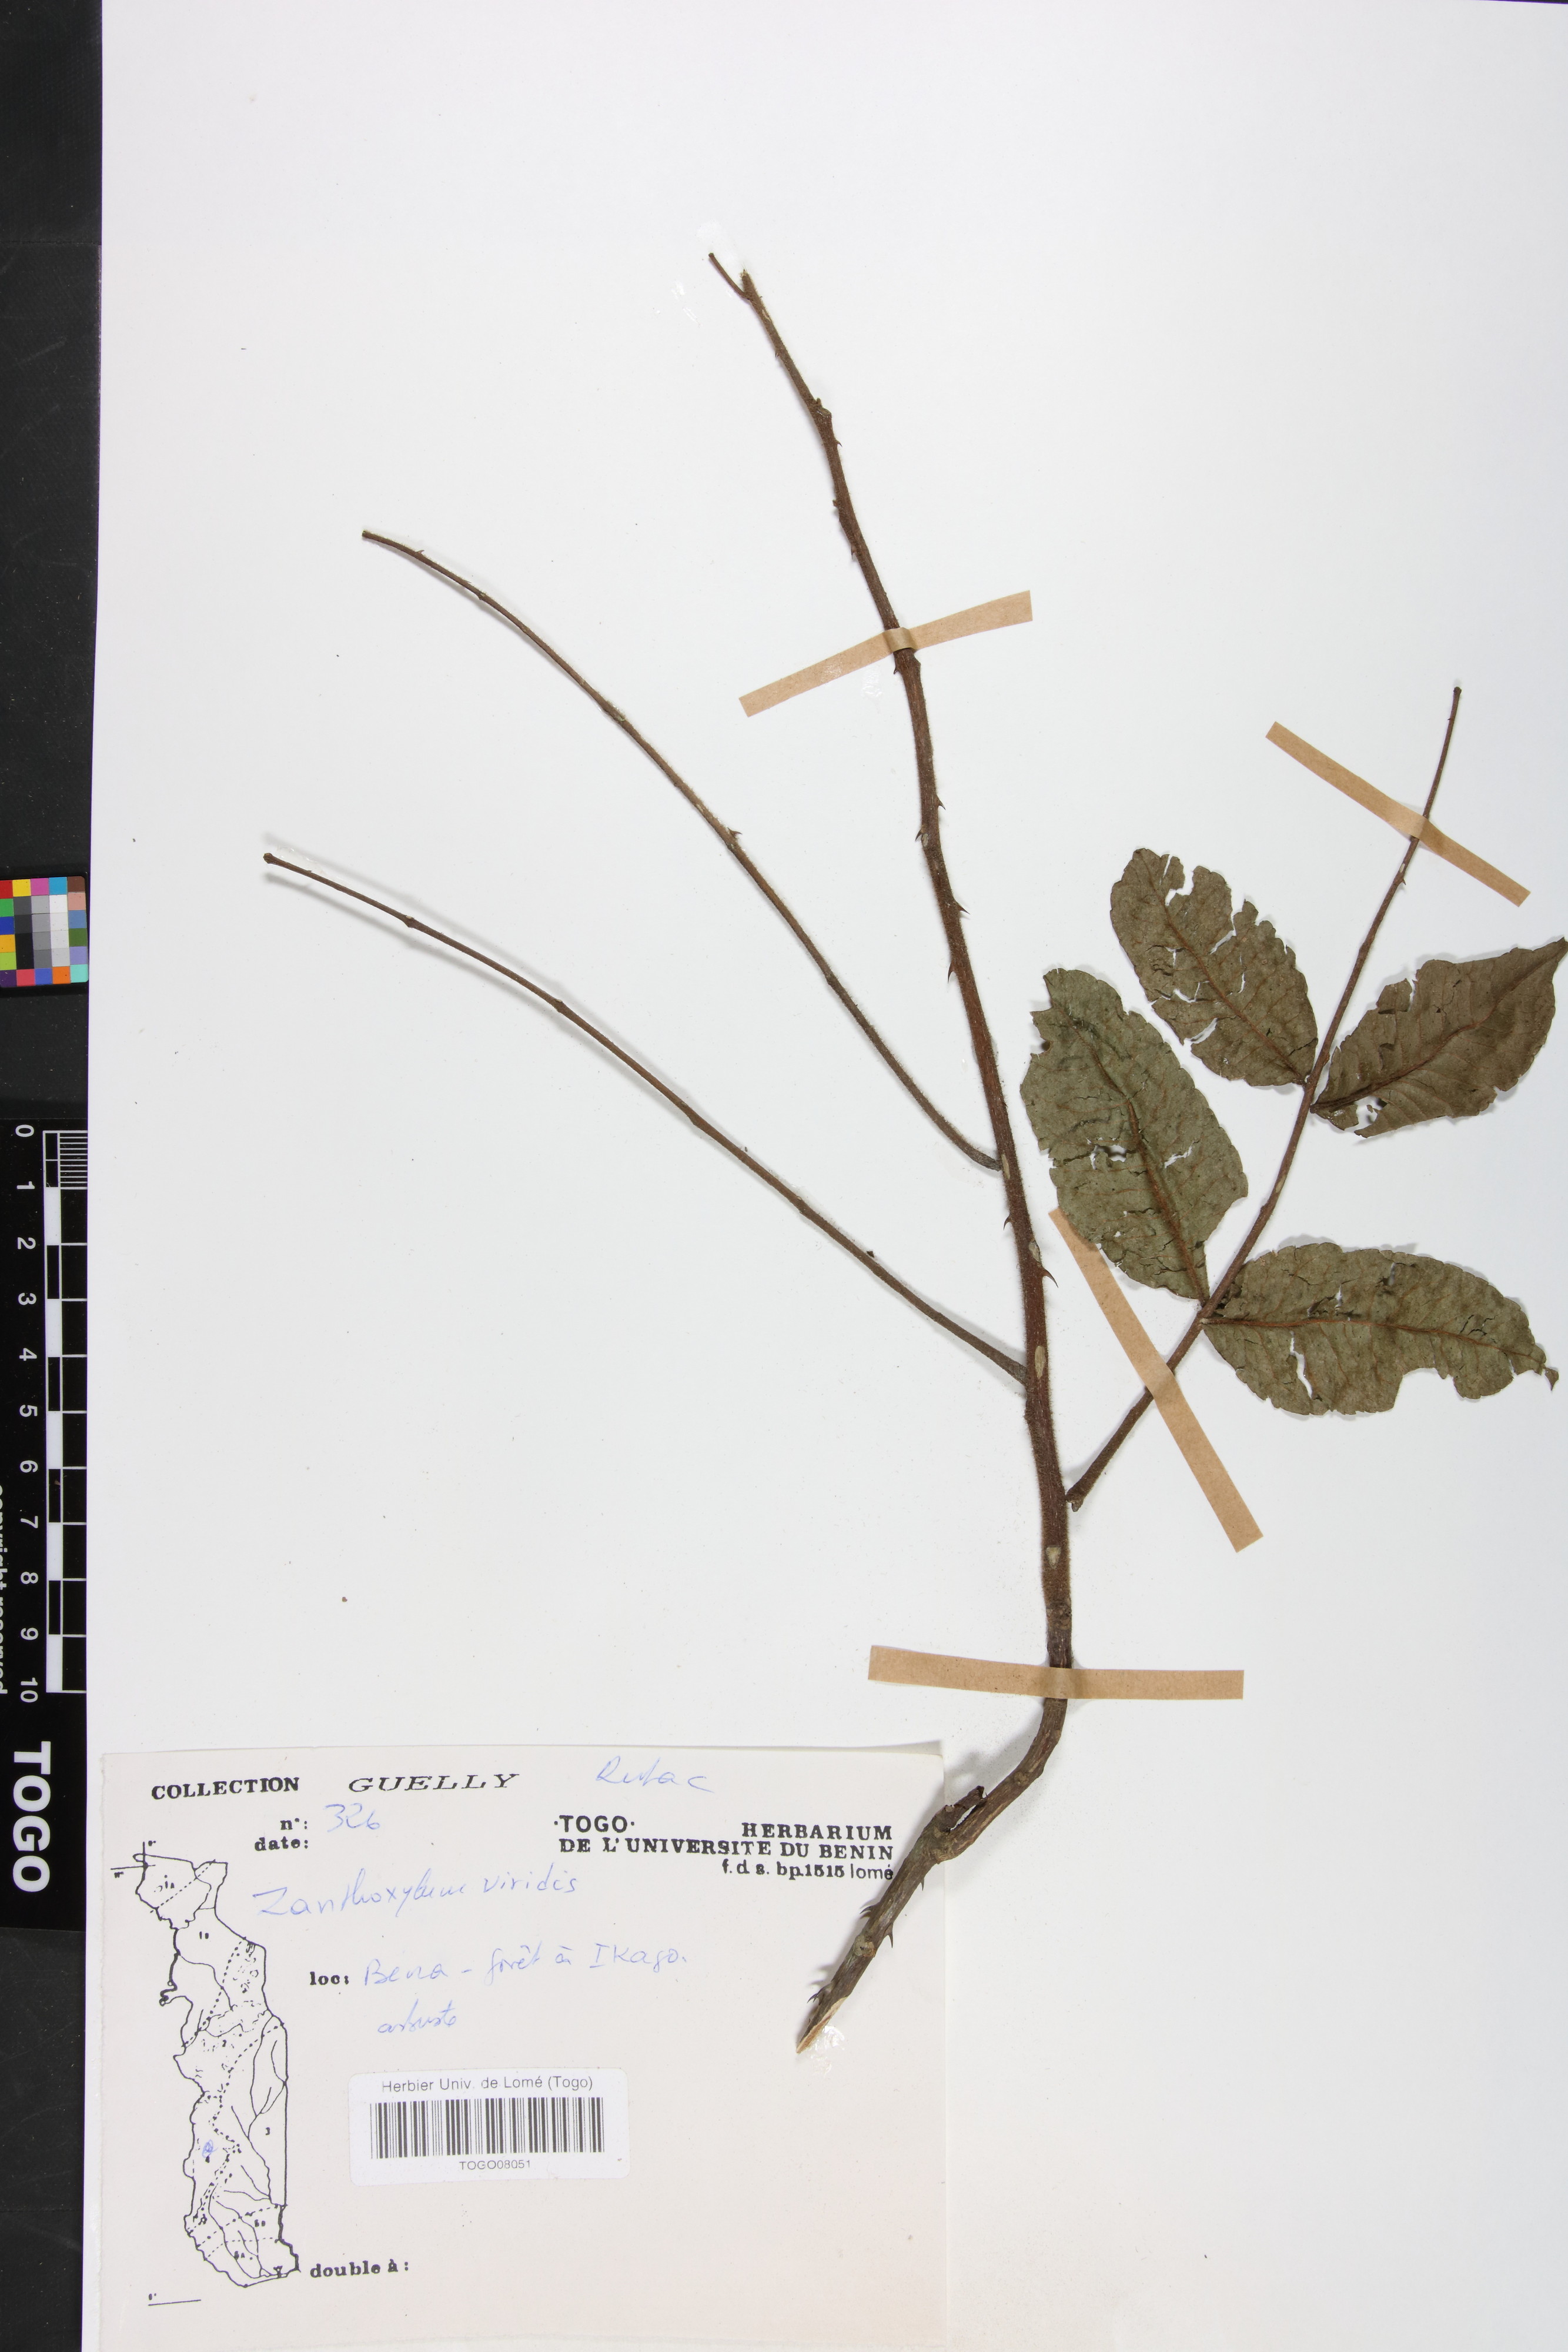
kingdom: Plantae
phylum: Tracheophyta
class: Magnoliopsida
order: Sapindales
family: Rutaceae
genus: Zanthoxylum
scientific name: Zanthoxylum viride
